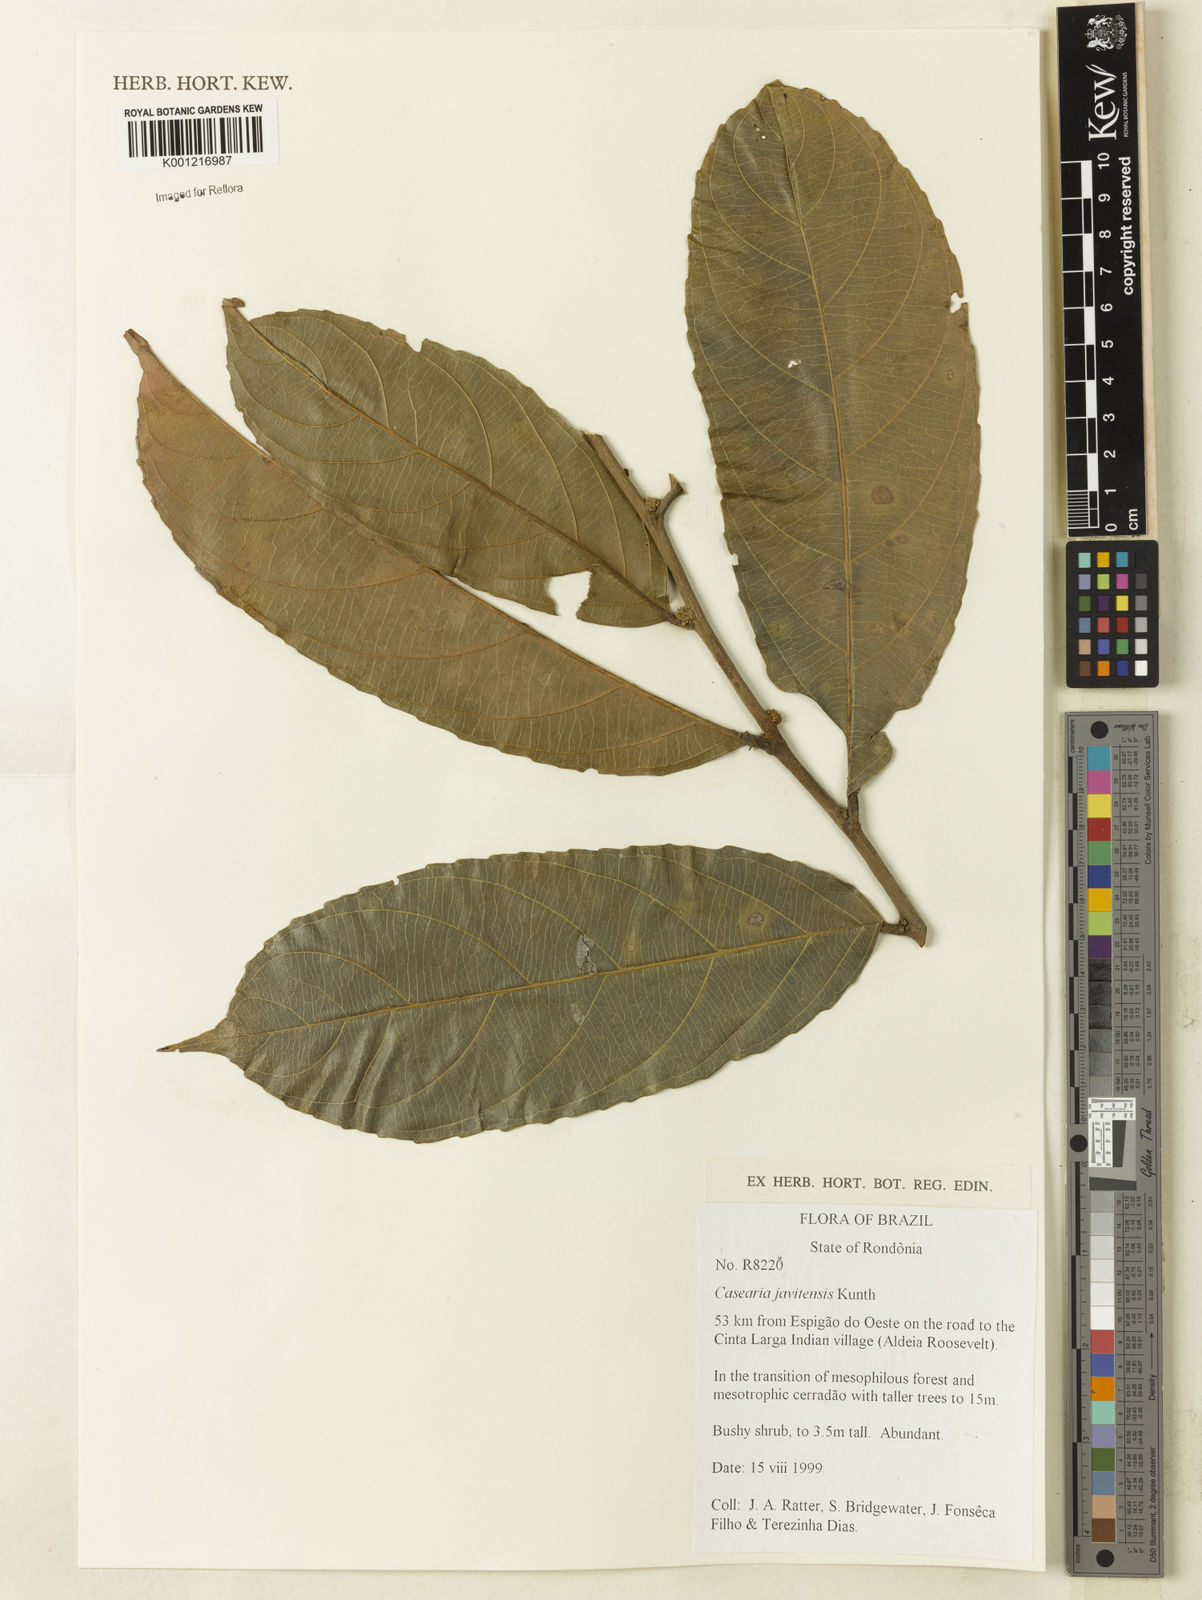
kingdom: Plantae
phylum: Tracheophyta
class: Magnoliopsida
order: Malpighiales
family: Salicaceae
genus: Piparea
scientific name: Piparea multiflora
